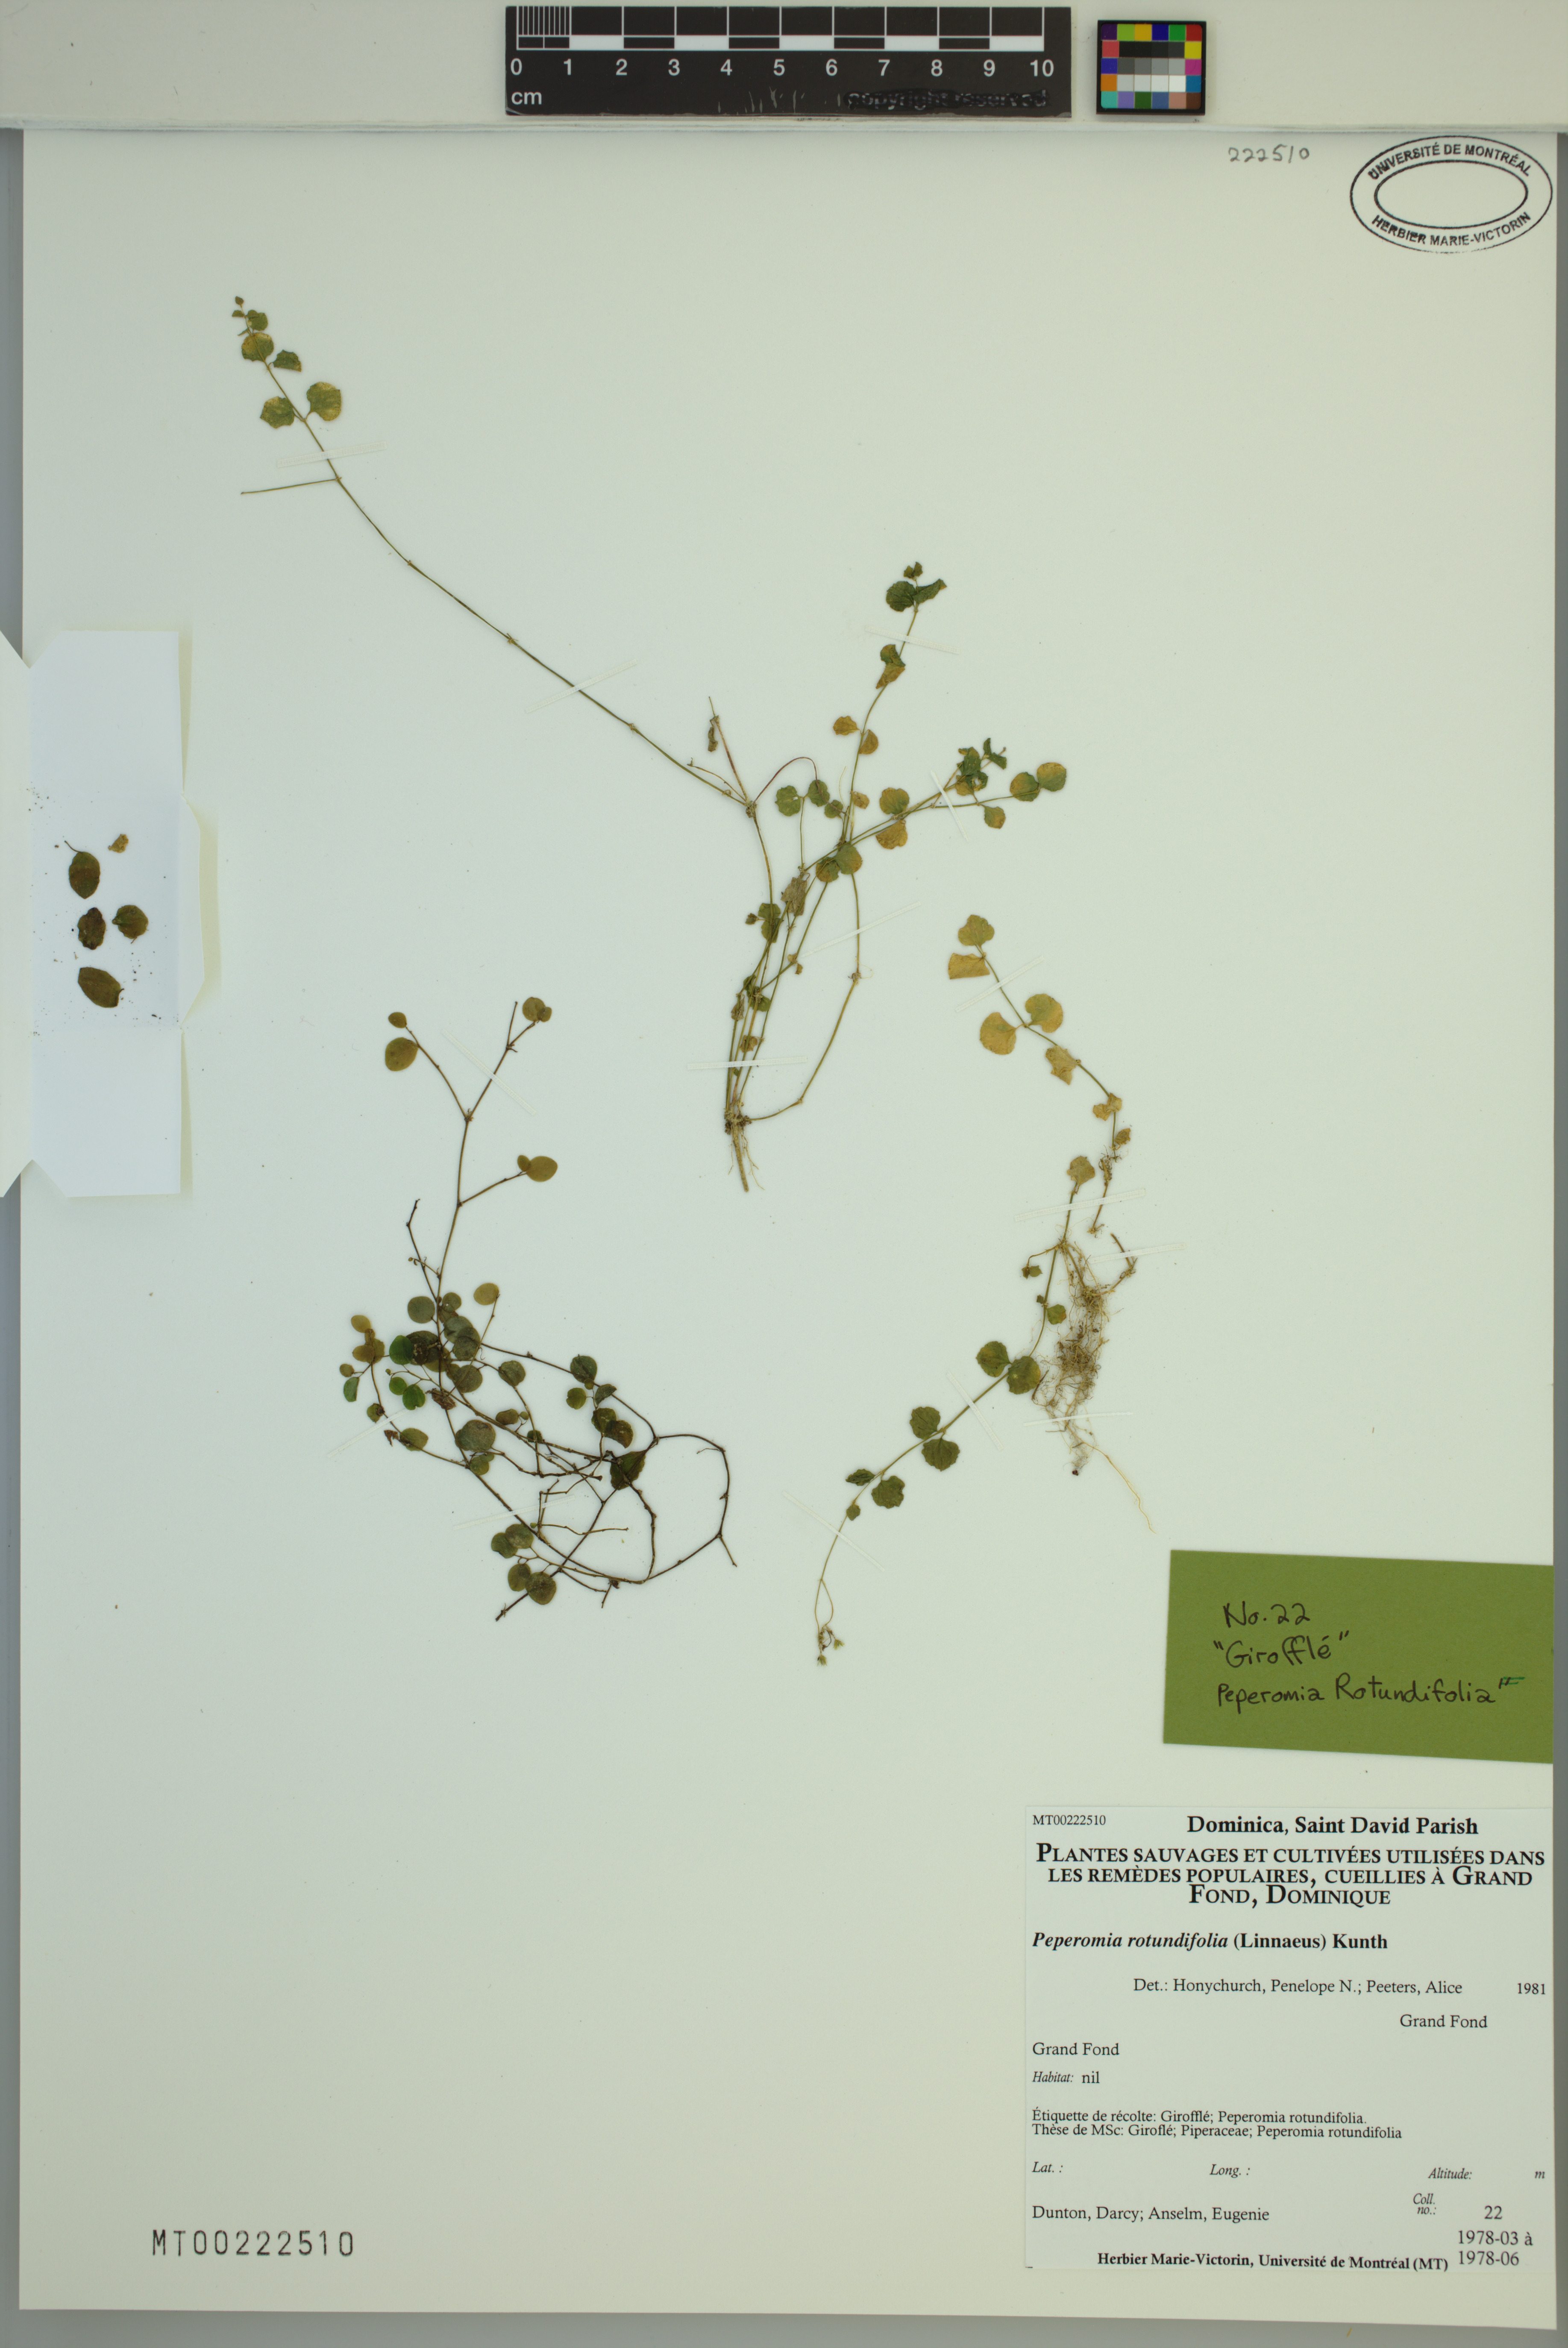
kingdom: Plantae
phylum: Tracheophyta
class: Magnoliopsida
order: Piperales
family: Piperaceae
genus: Peperomia
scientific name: Peperomia rotundifolia
